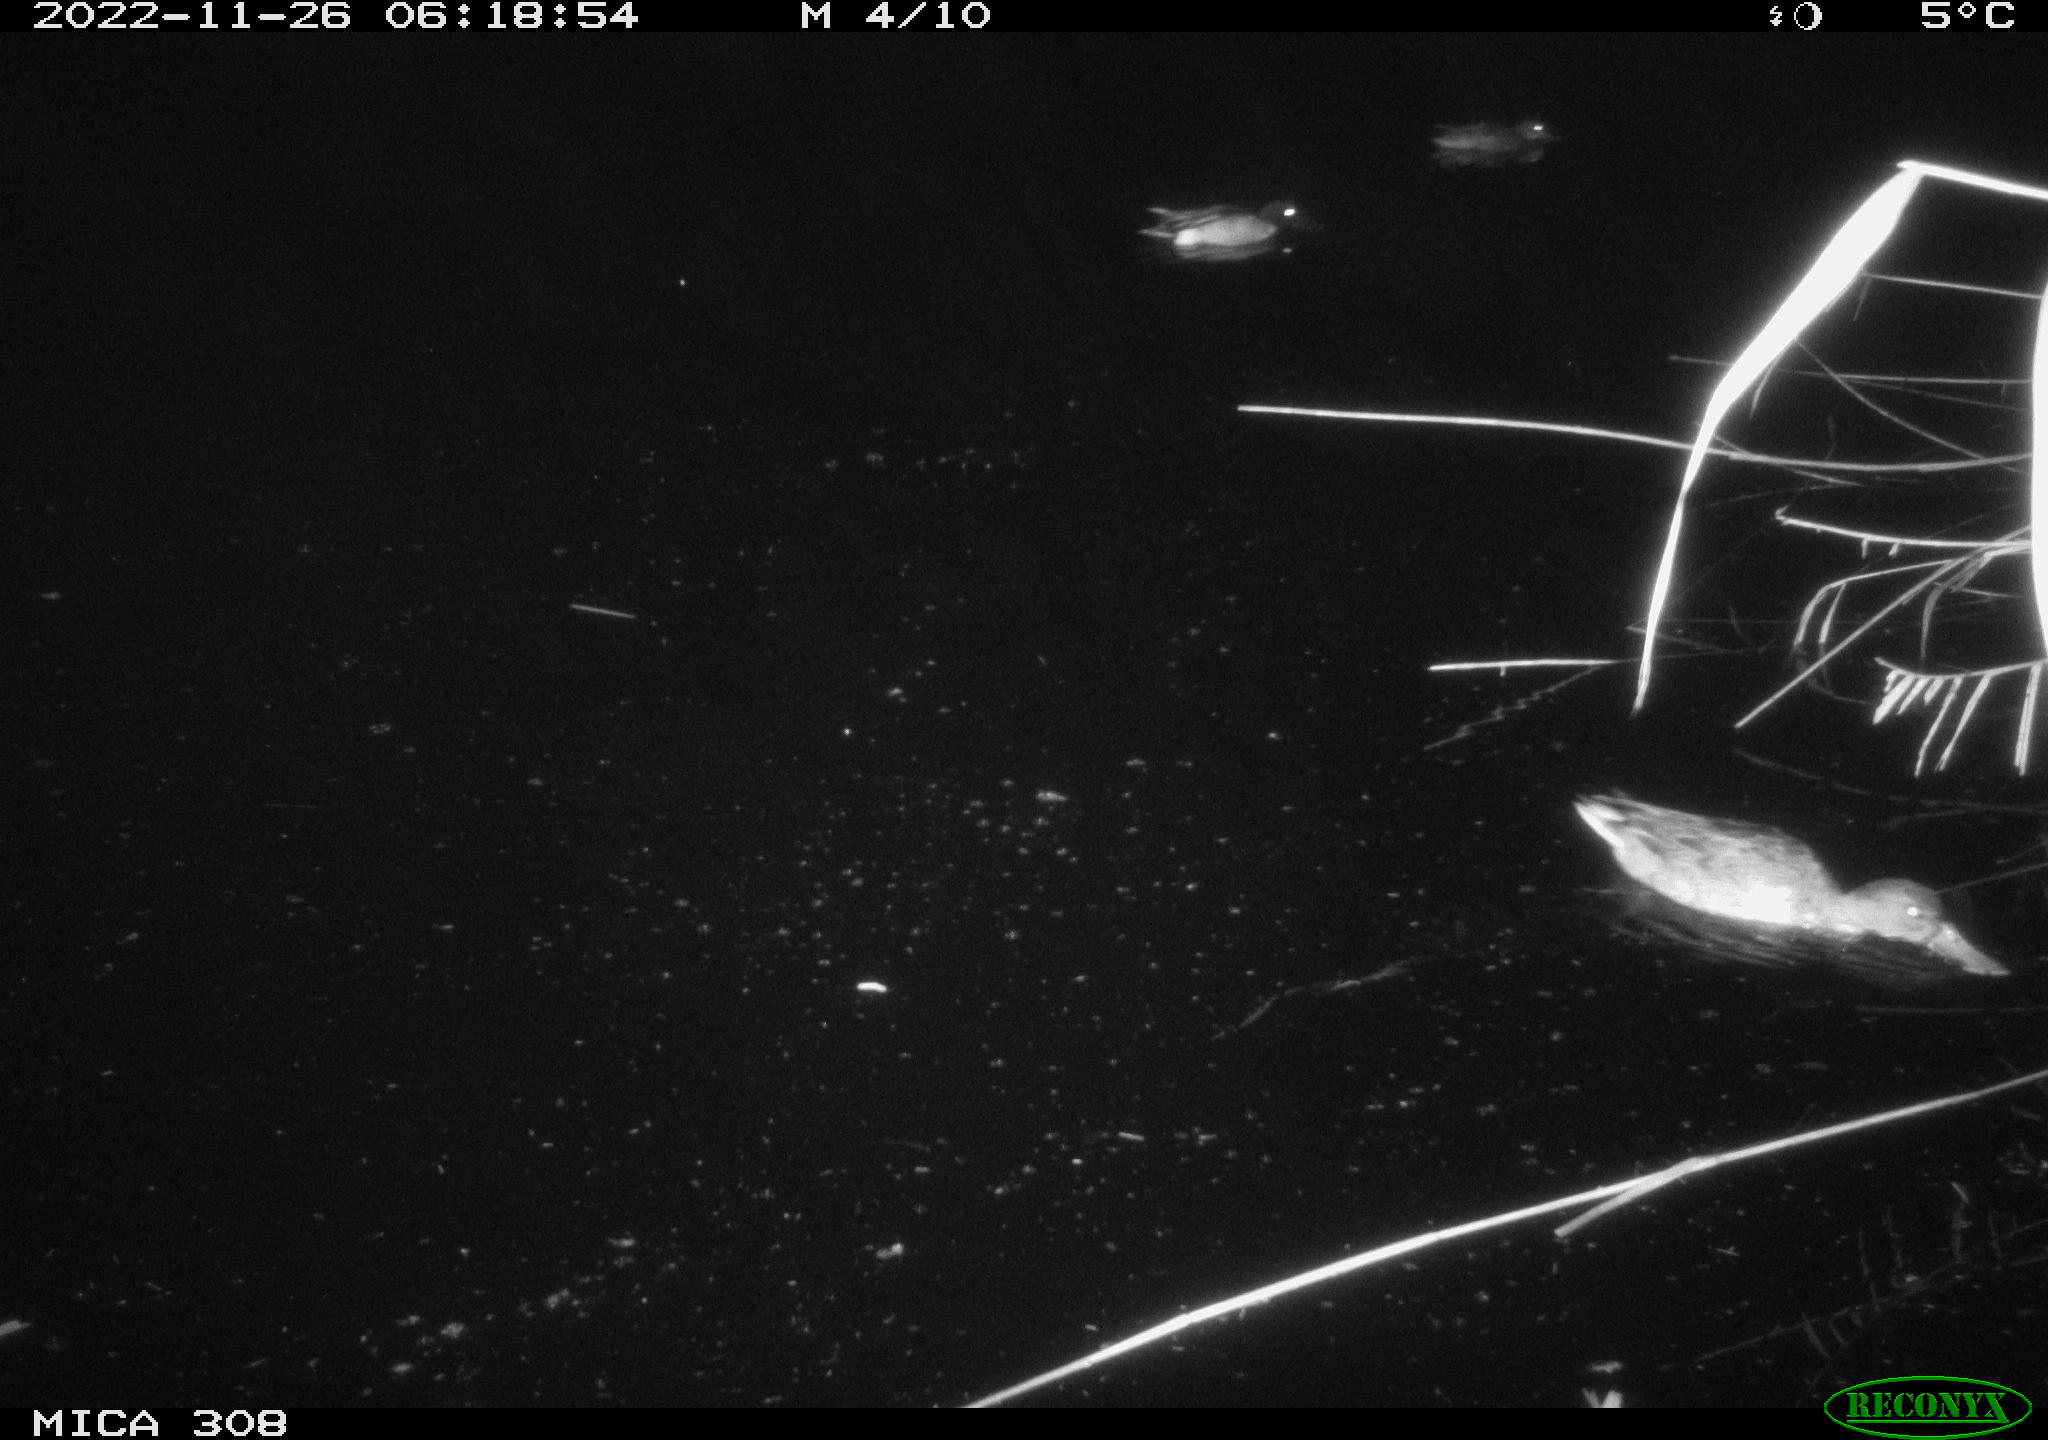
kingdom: Animalia
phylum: Chordata
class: Aves
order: Anseriformes
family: Anatidae
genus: Anas
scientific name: Anas
